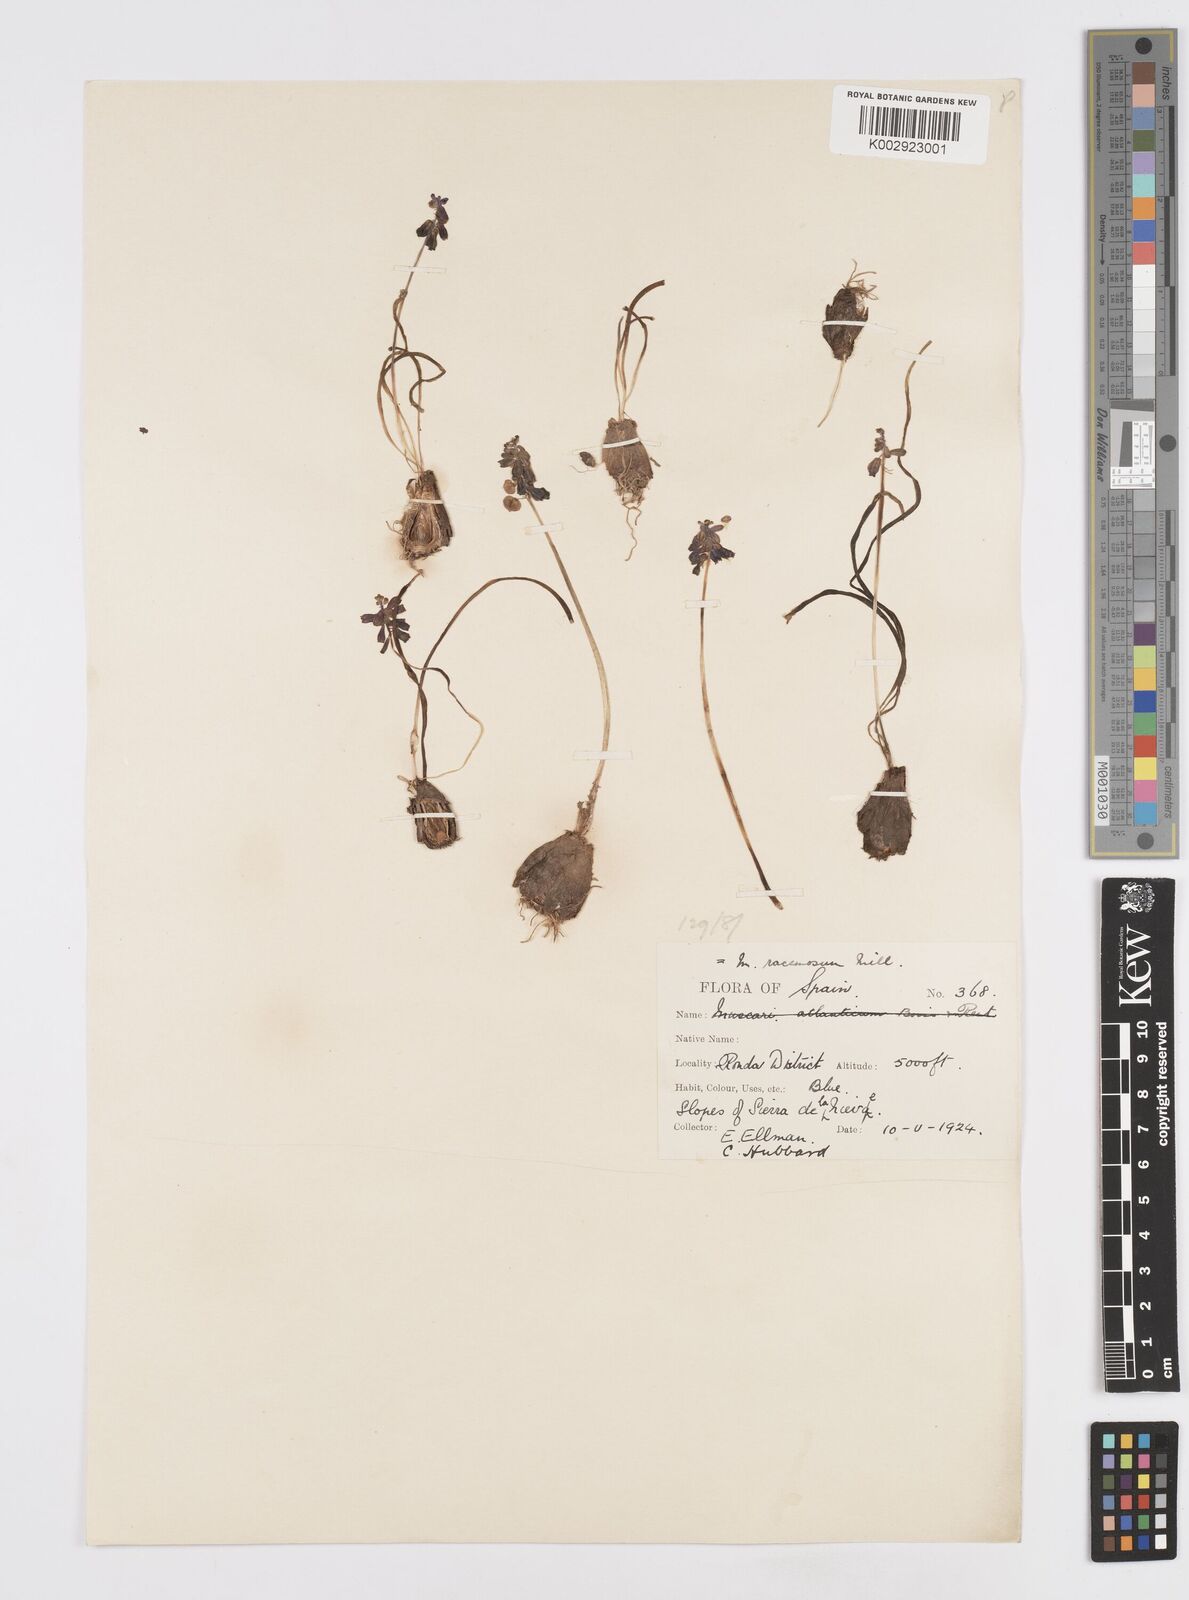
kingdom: Plantae
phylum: Tracheophyta
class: Liliopsida
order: Asparagales
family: Asparagaceae
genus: Muscarimia
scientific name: Muscarimia muscari
